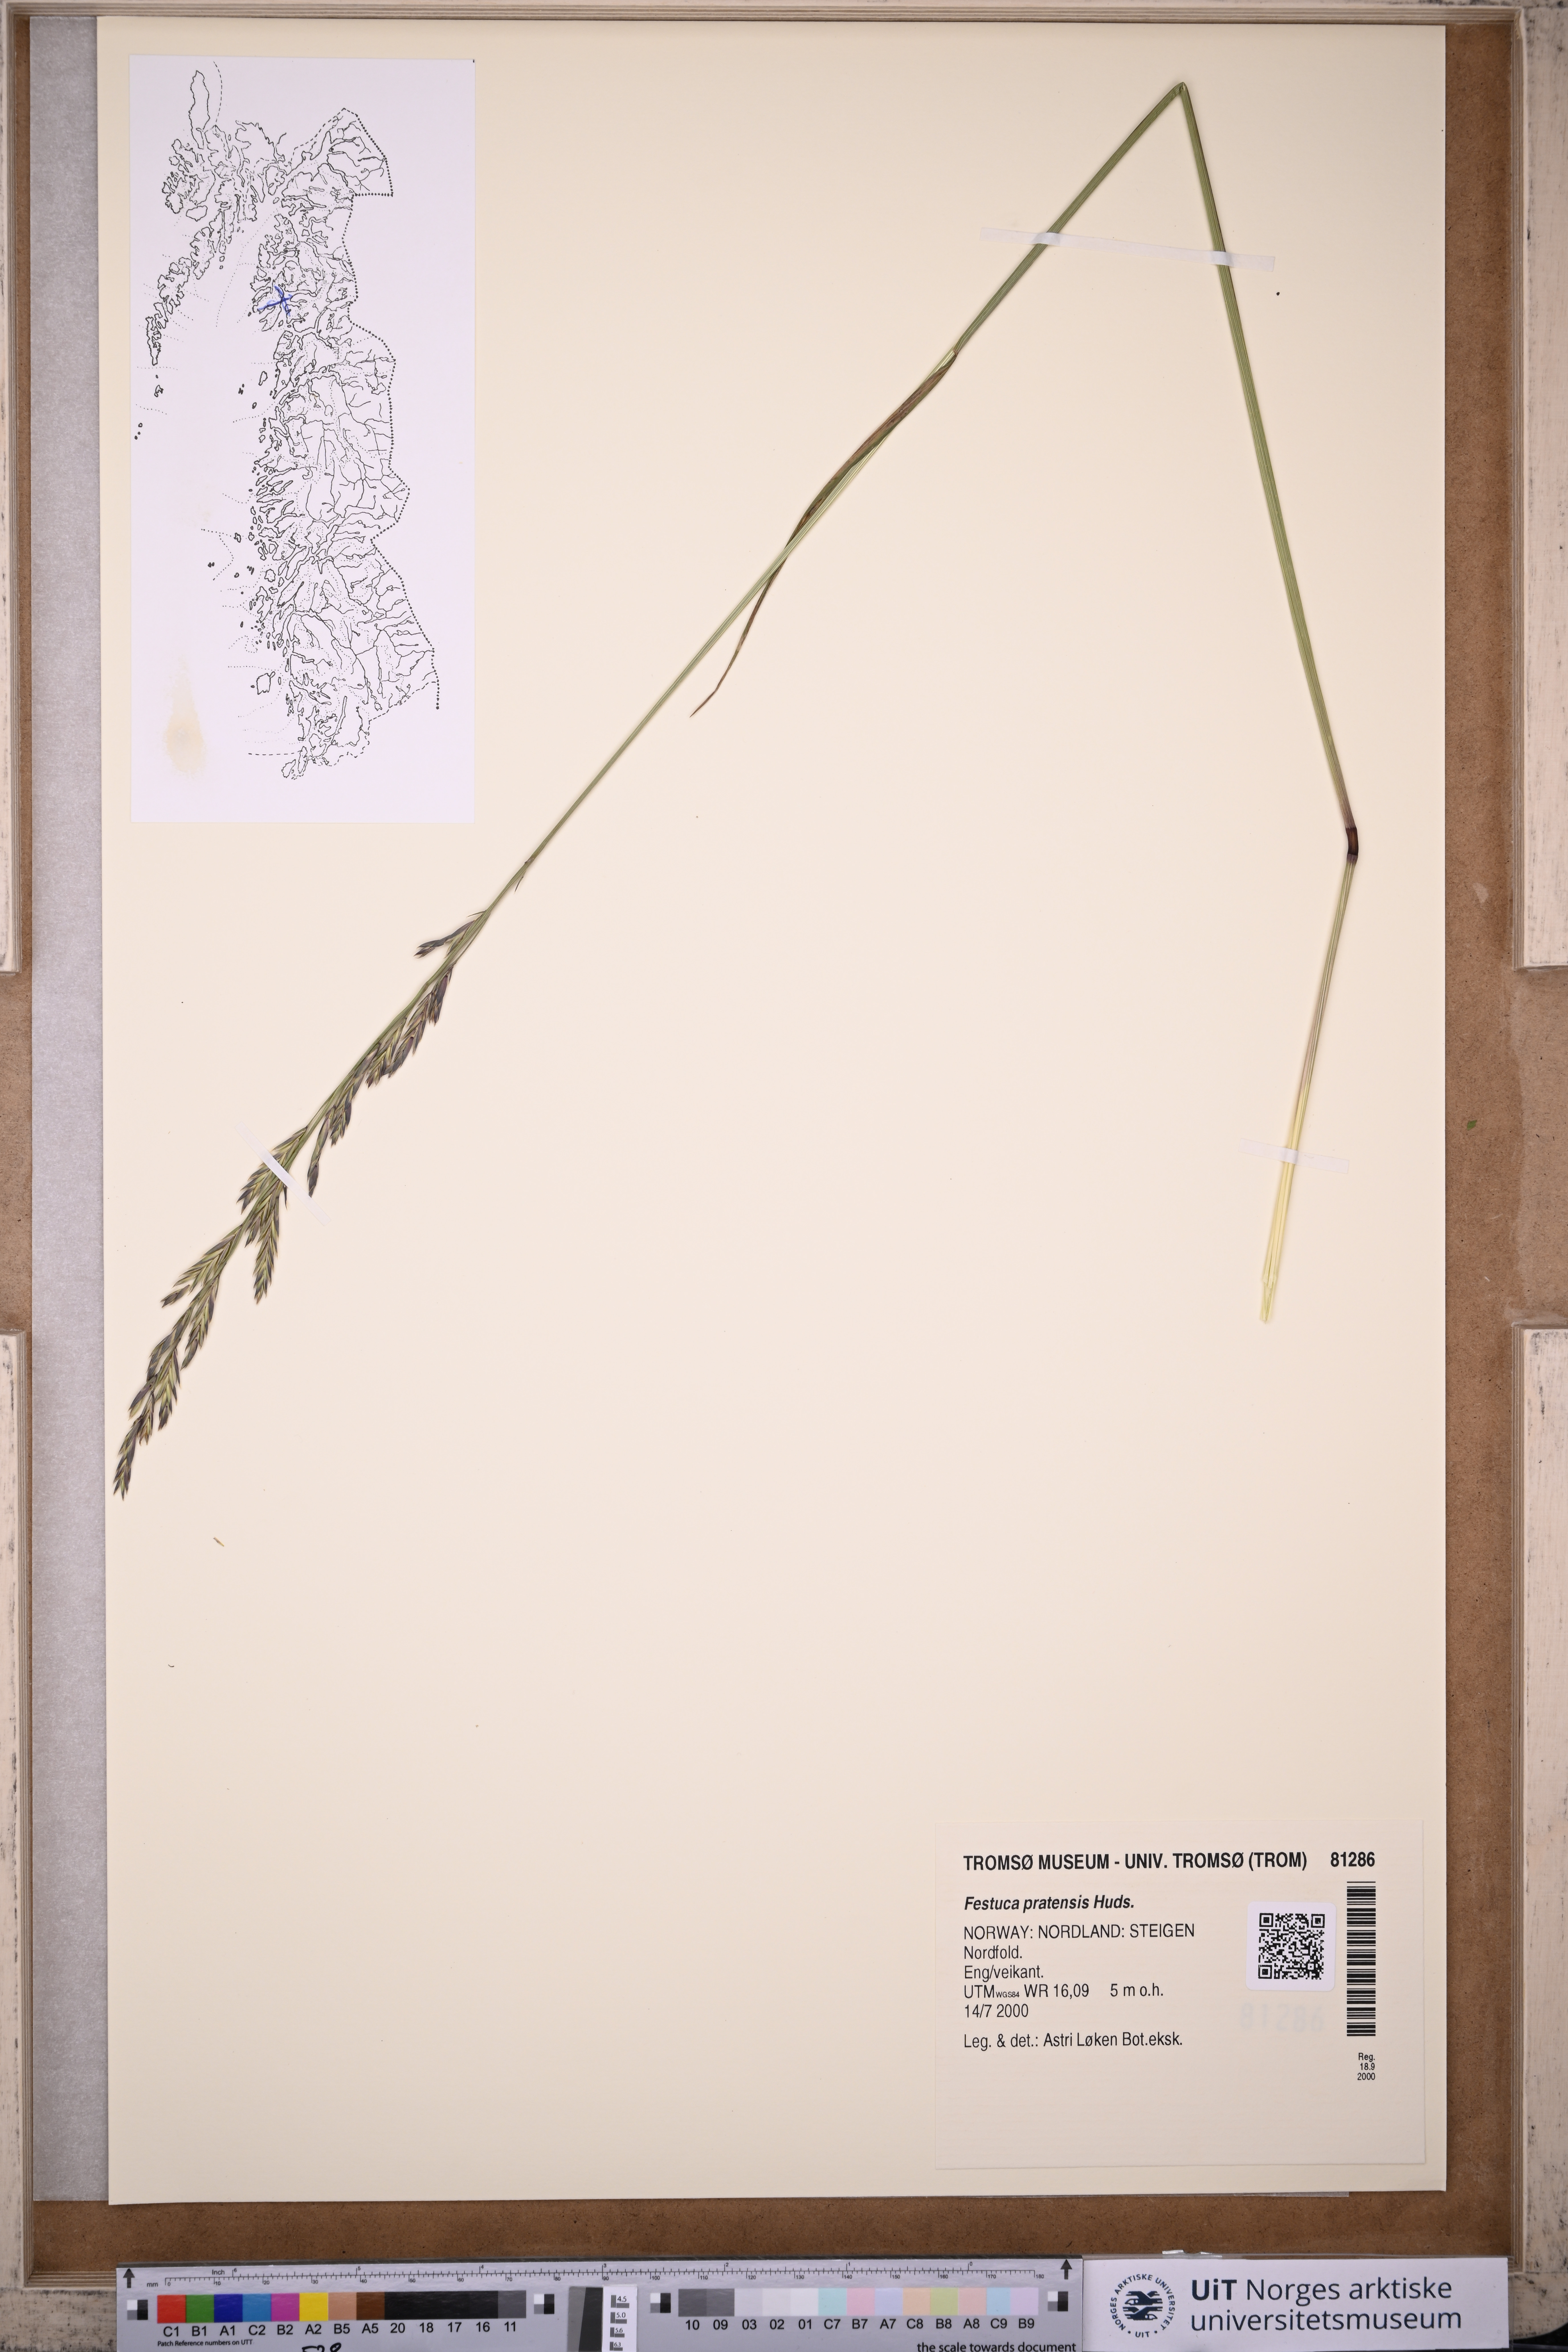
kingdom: Plantae
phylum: Tracheophyta
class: Liliopsida
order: Poales
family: Poaceae
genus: Lolium
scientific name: Lolium pratense
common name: Dover grass
